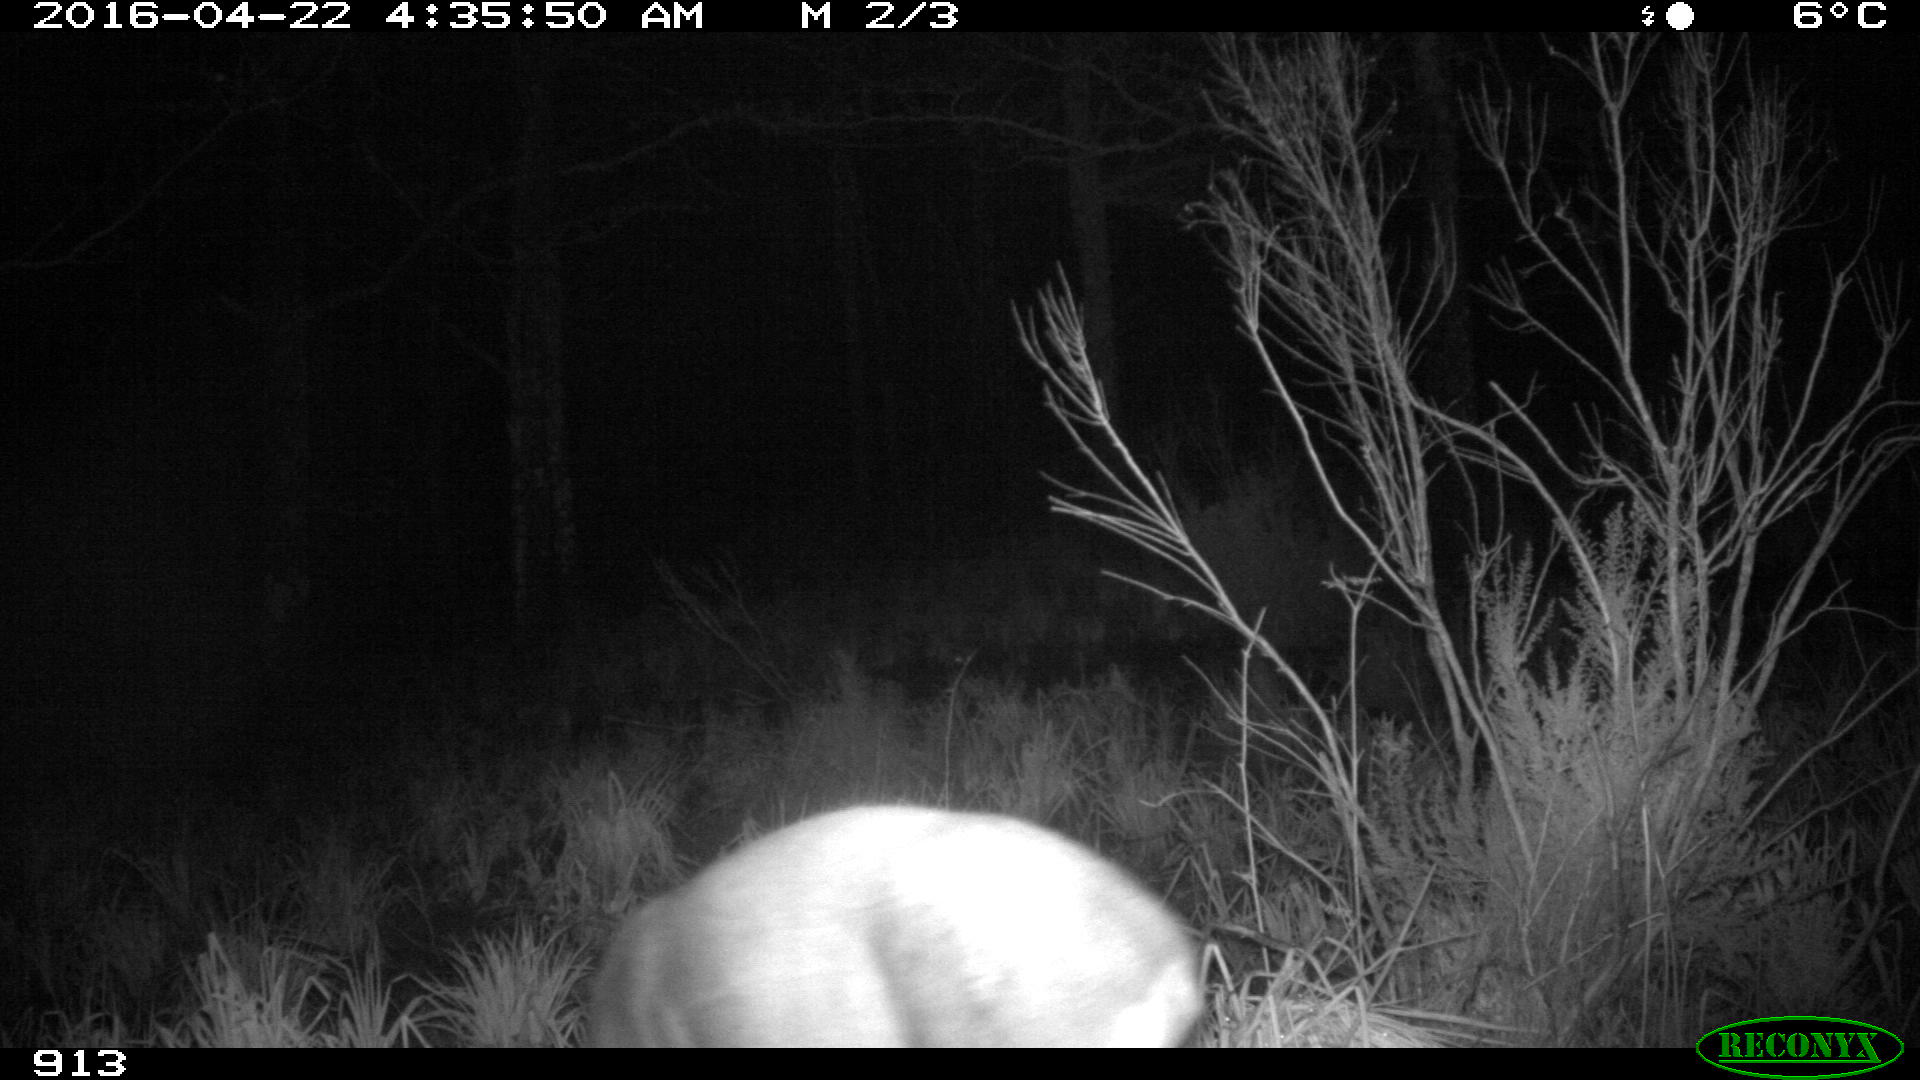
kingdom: Animalia
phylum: Chordata
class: Mammalia
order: Artiodactyla
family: Cervidae
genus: Capreolus
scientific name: Capreolus capreolus
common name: Western roe deer
